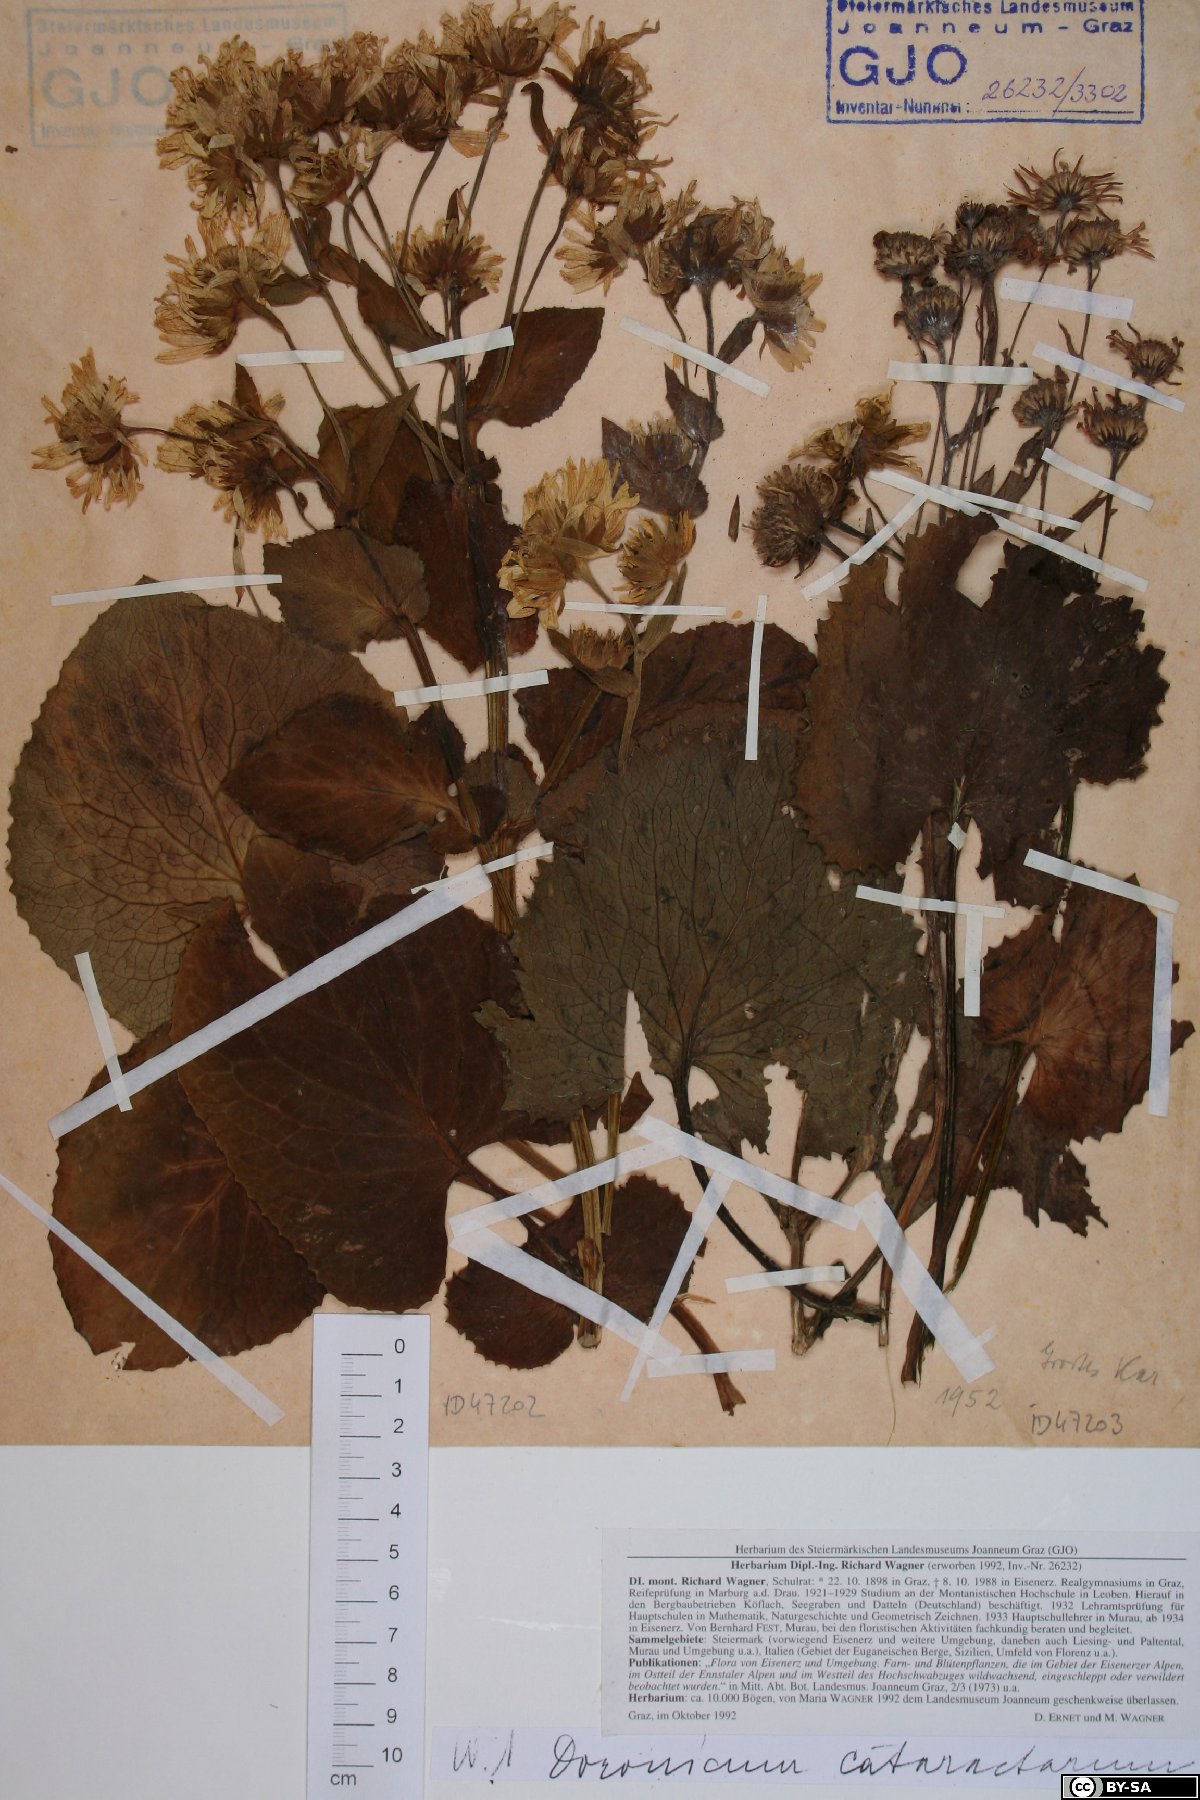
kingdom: Plantae
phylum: Tracheophyta
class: Magnoliopsida
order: Asterales
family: Asteraceae
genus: Doronicum
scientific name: Doronicum cataractarum
